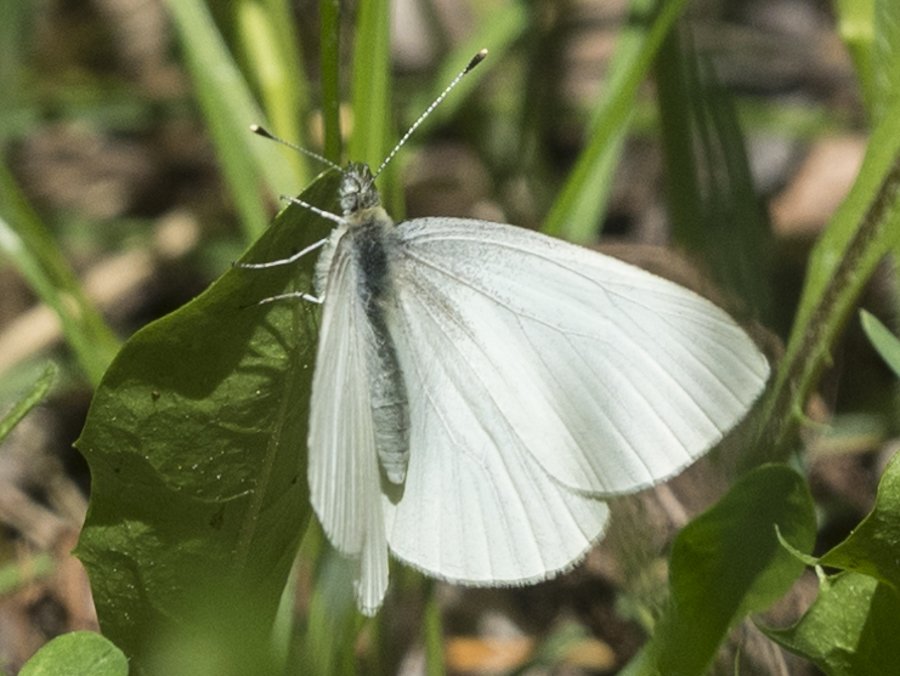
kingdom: Animalia
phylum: Arthropoda
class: Insecta
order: Lepidoptera
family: Pieridae
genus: Pieris
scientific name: Pieris oleracea
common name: Mustard White
